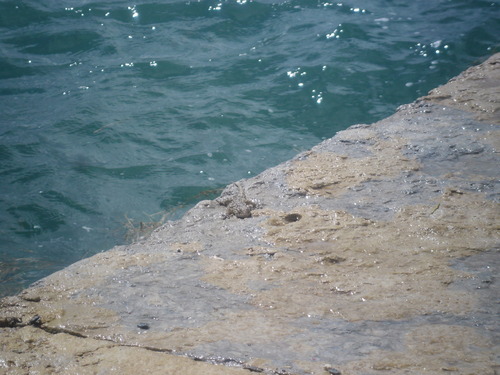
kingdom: Animalia
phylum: Chordata
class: Squamata
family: Phyllodactylidae
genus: Tarentola
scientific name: Tarentola mauritanica
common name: Moorish gecko
